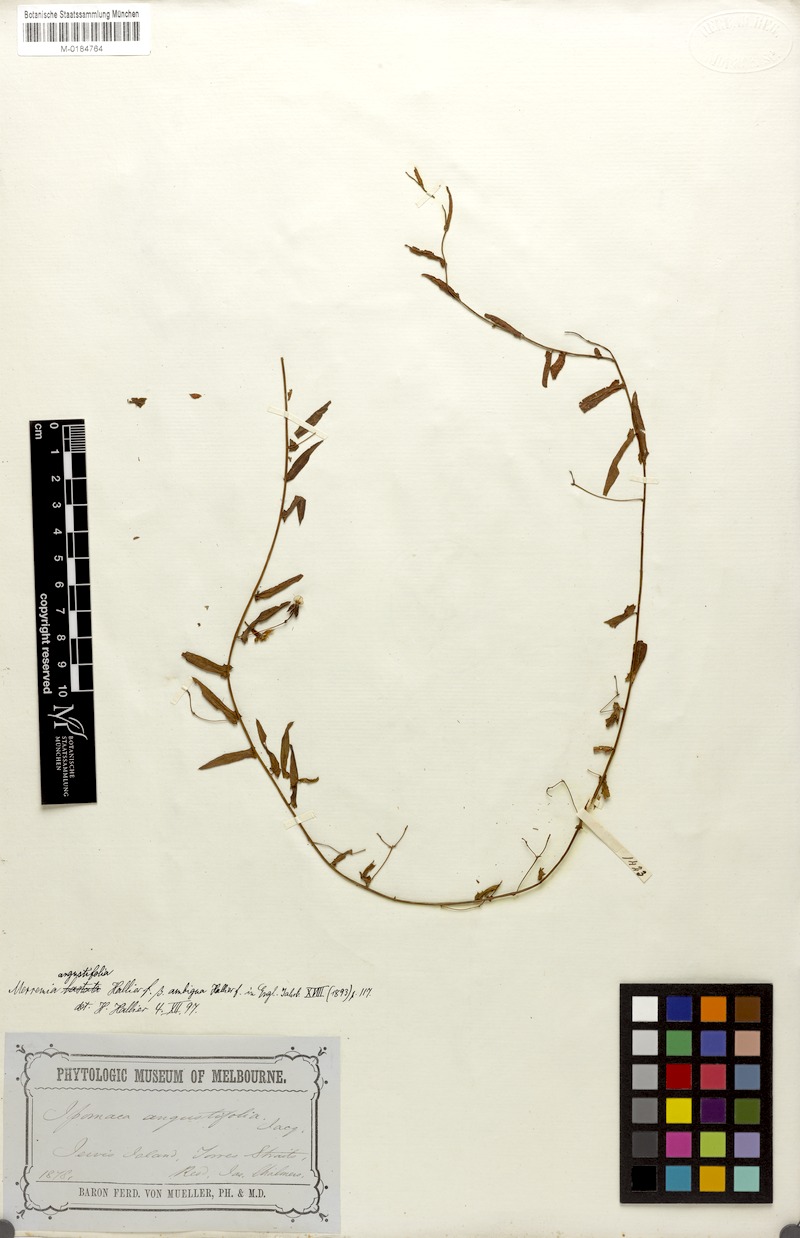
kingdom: Plantae
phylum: Tracheophyta
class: Magnoliopsida
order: Solanales
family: Convolvulaceae
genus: Xenostegia
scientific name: Xenostegia tridentata
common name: African morningvine
